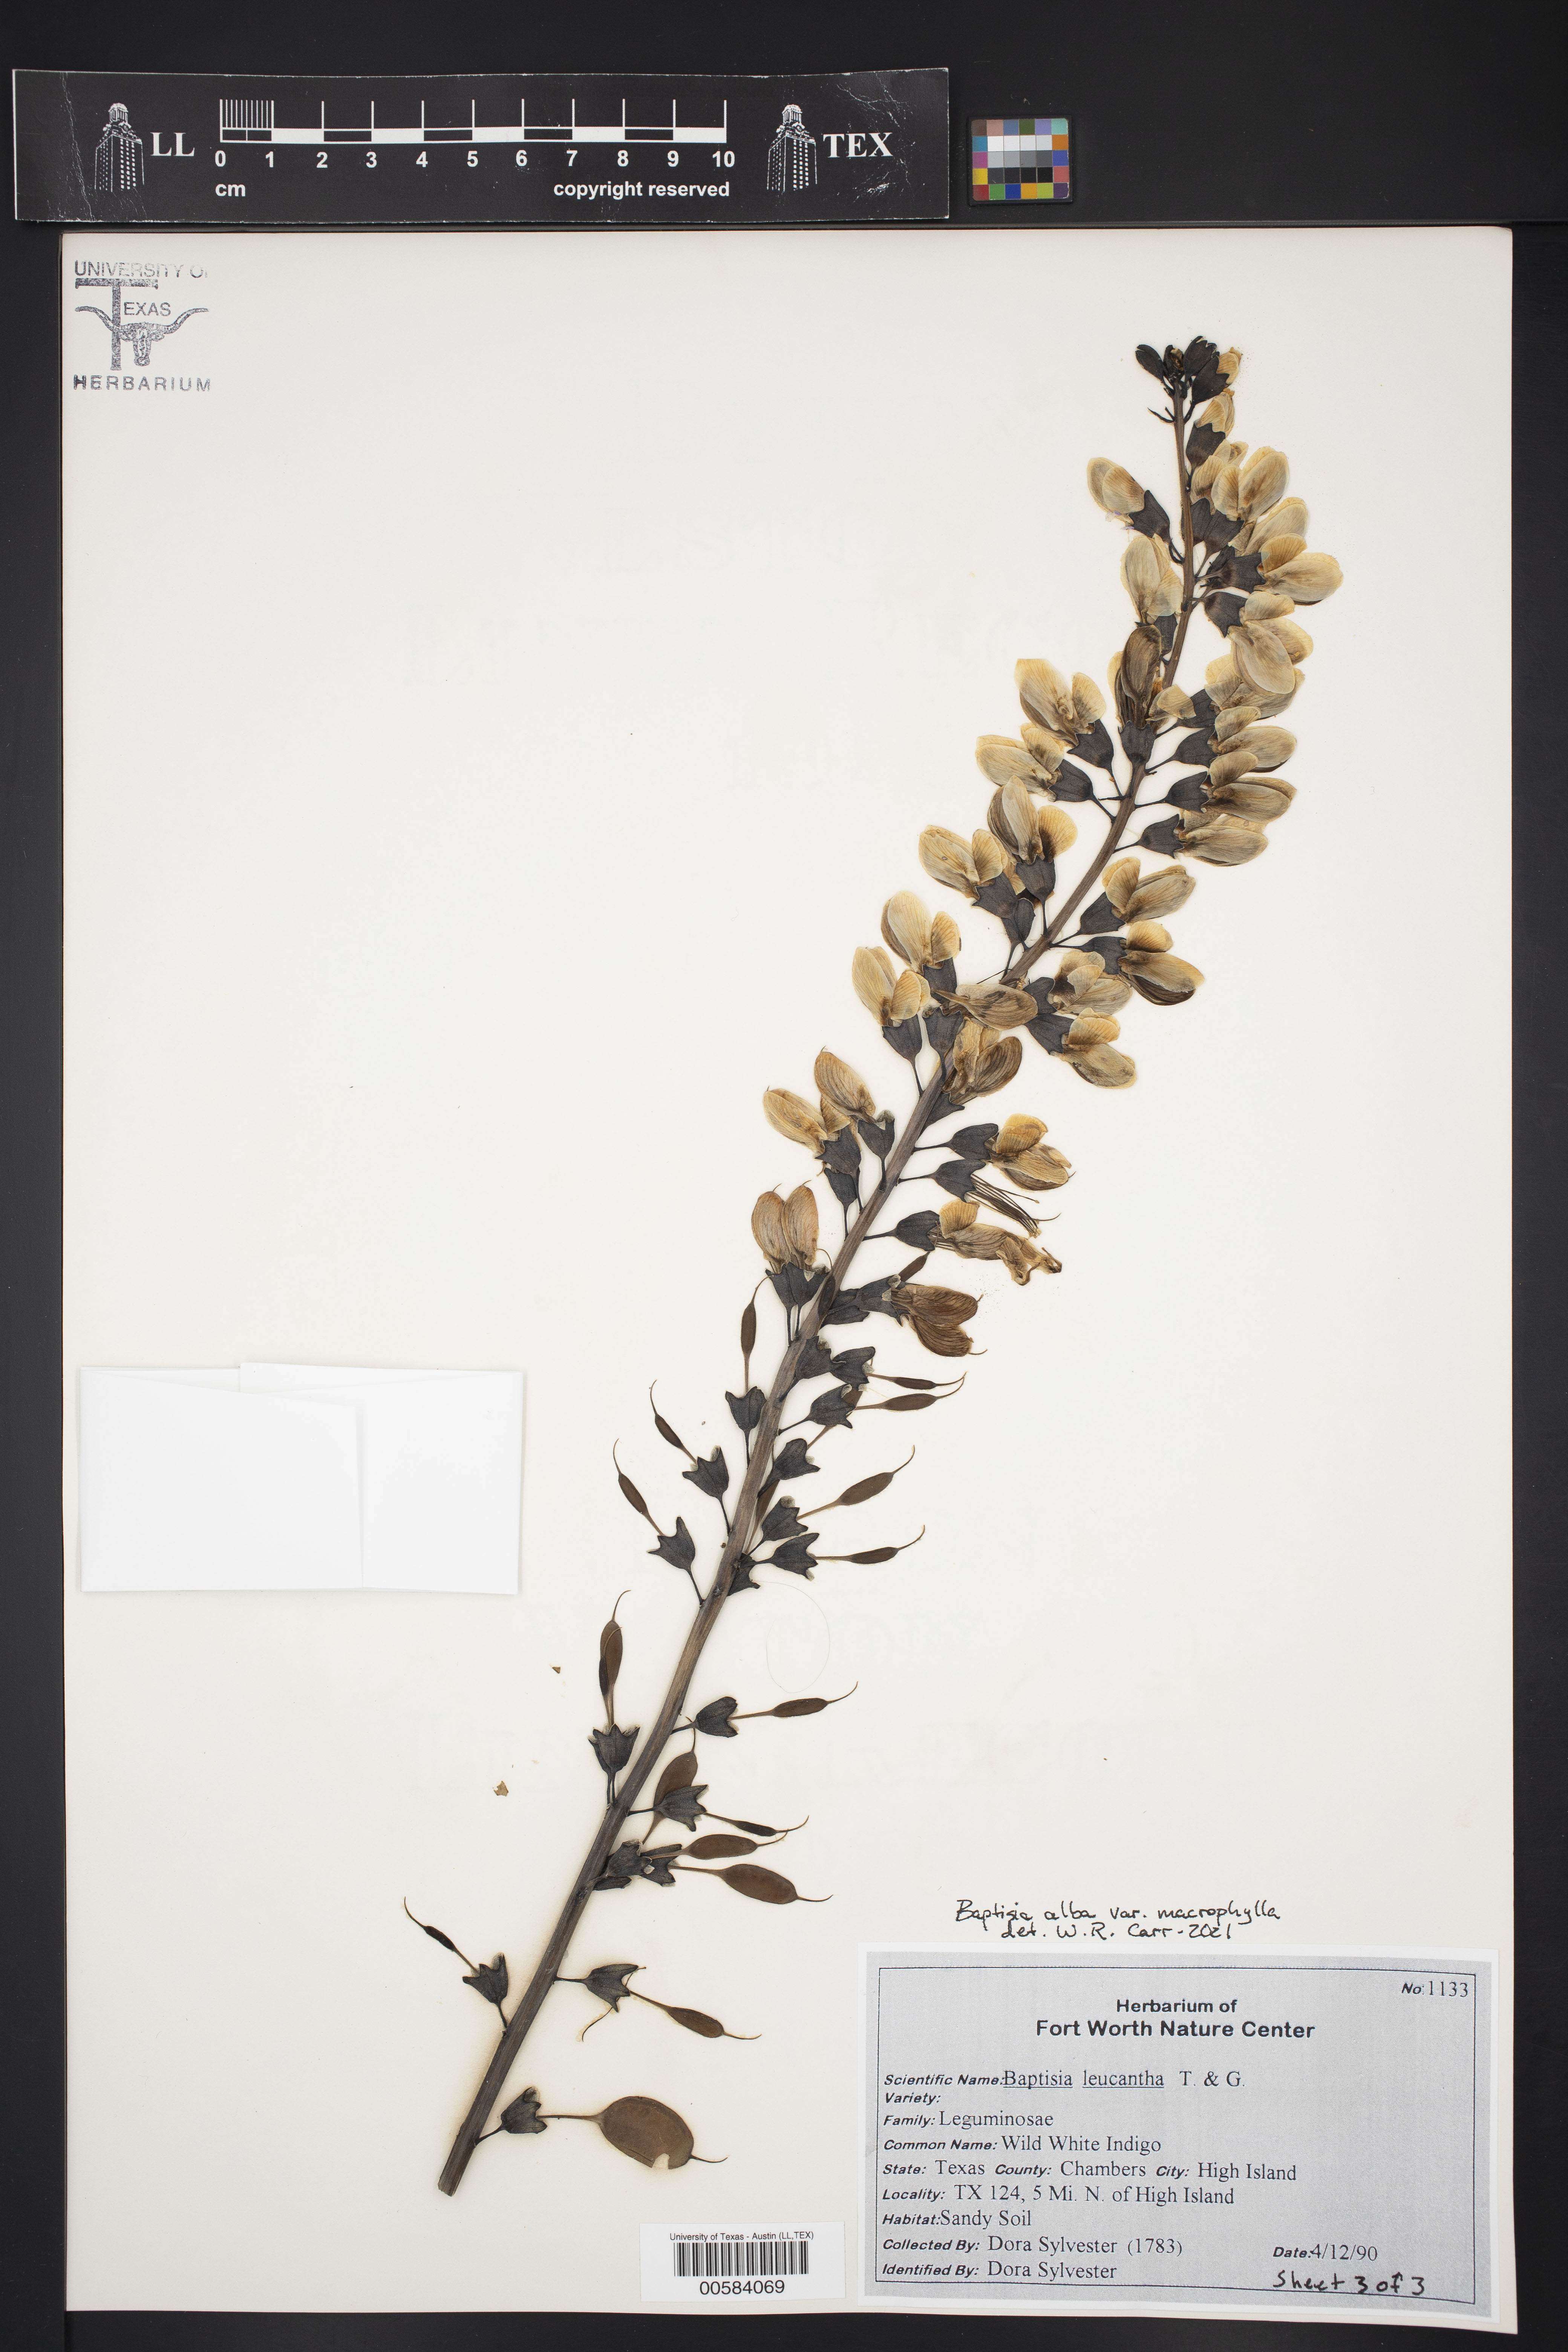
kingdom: Plantae
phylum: Tracheophyta
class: Magnoliopsida
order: Fabales
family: Fabaceae
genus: Baptisia
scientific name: Baptisia alba
